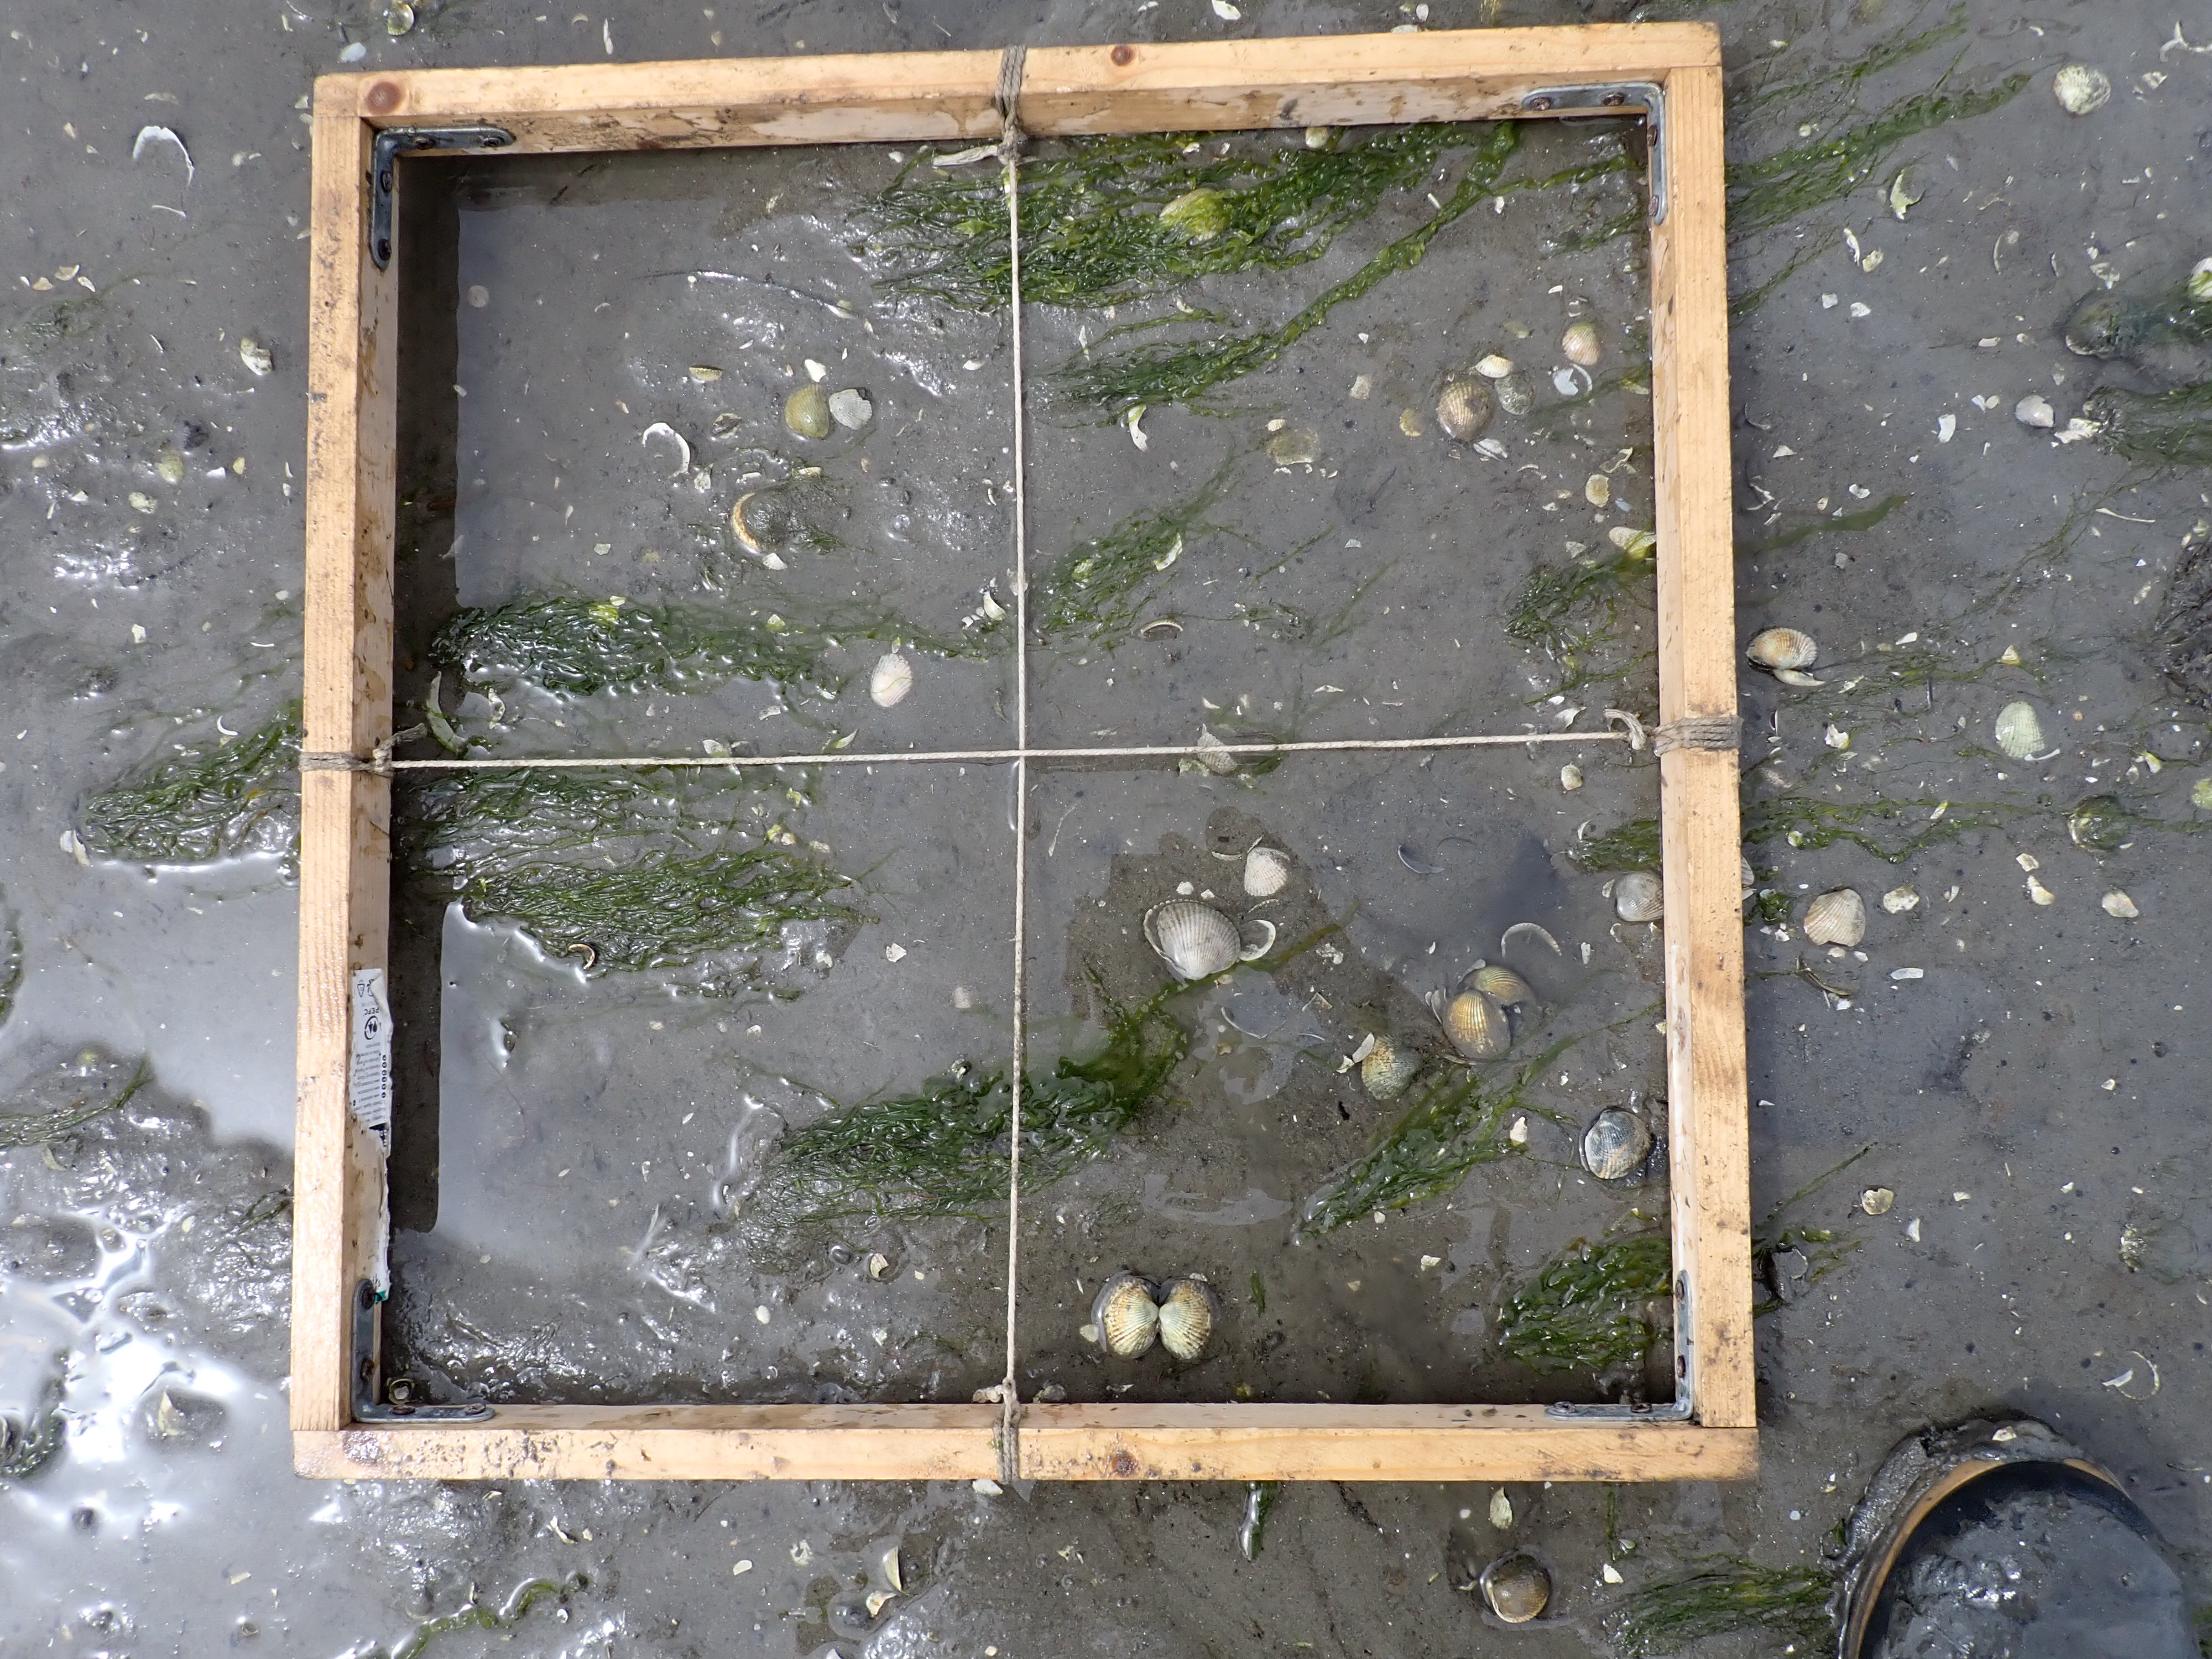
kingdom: Plantae
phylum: Chlorophyta
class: Ulvophyceae
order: Ulvales
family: Ulvaceae
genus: Ulva
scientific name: Ulva
